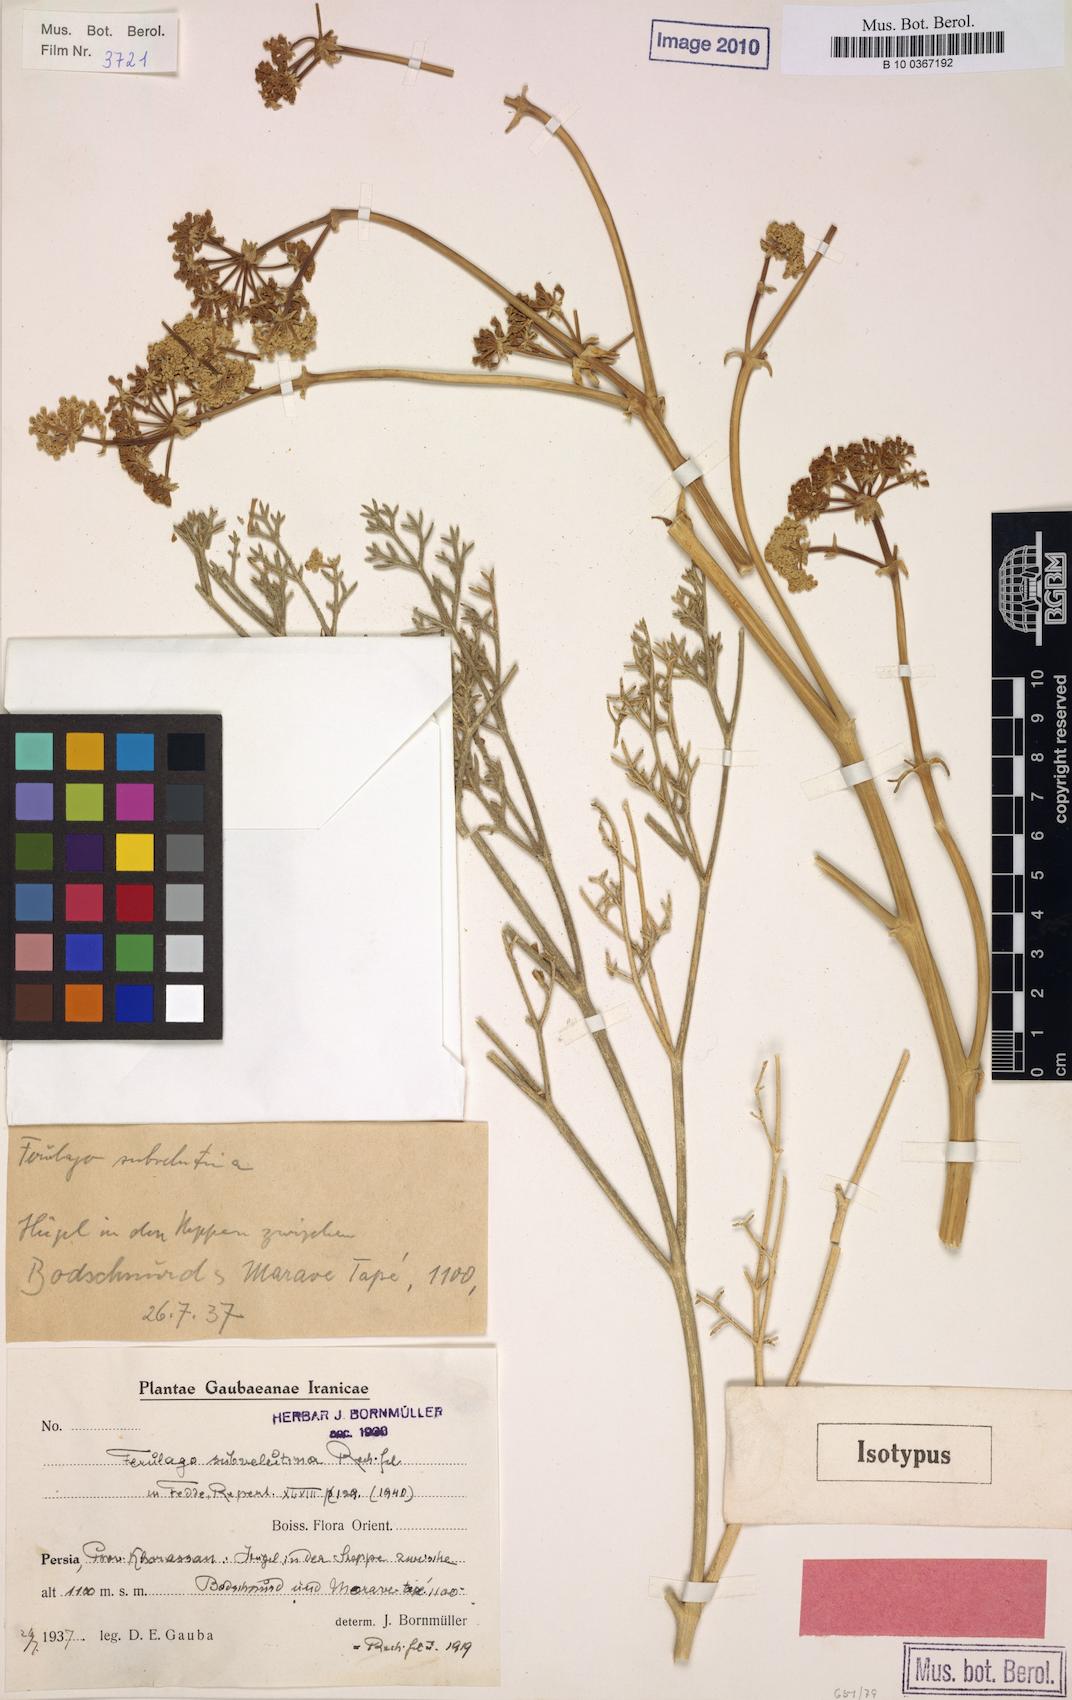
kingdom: Plantae
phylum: Tracheophyta
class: Magnoliopsida
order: Apiales
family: Apiaceae
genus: Ferulago
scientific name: Ferulago subvelutina
